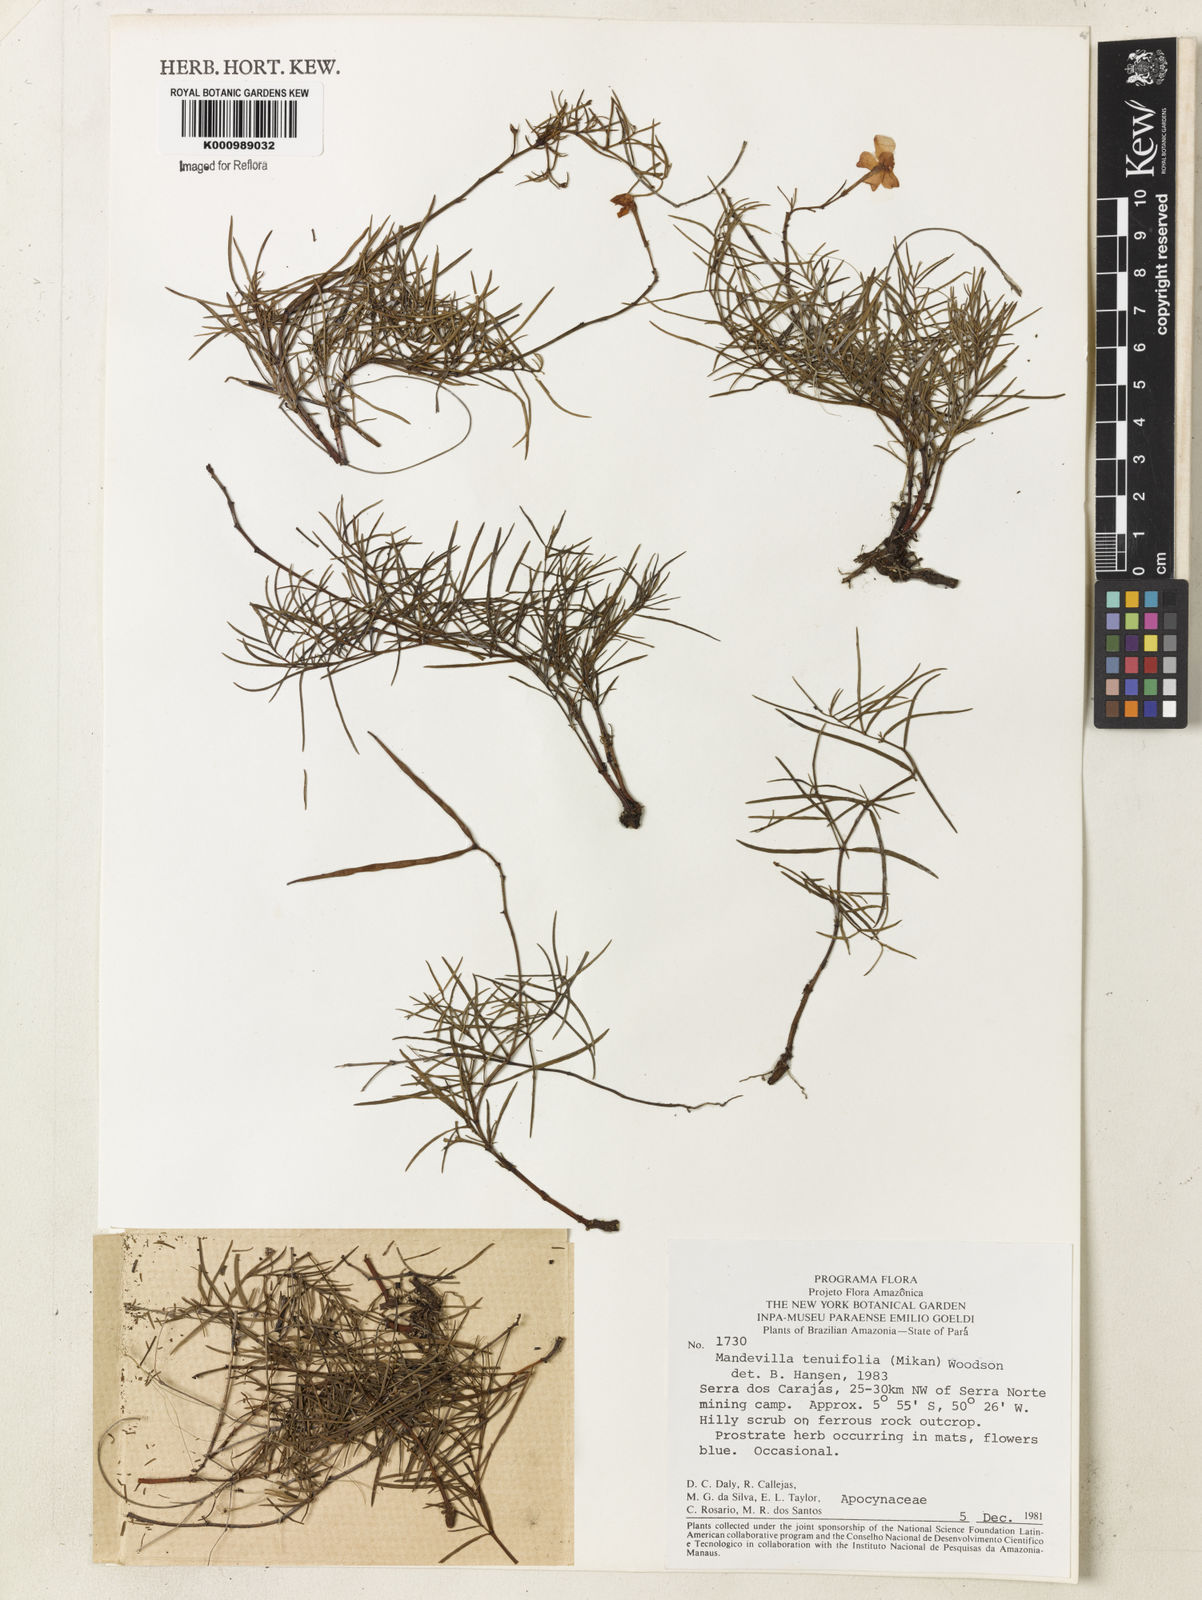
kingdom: Plantae
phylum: Tracheophyta
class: Magnoliopsida
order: Gentianales
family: Apocynaceae
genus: Mandevilla
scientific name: Mandevilla tenuifolia
